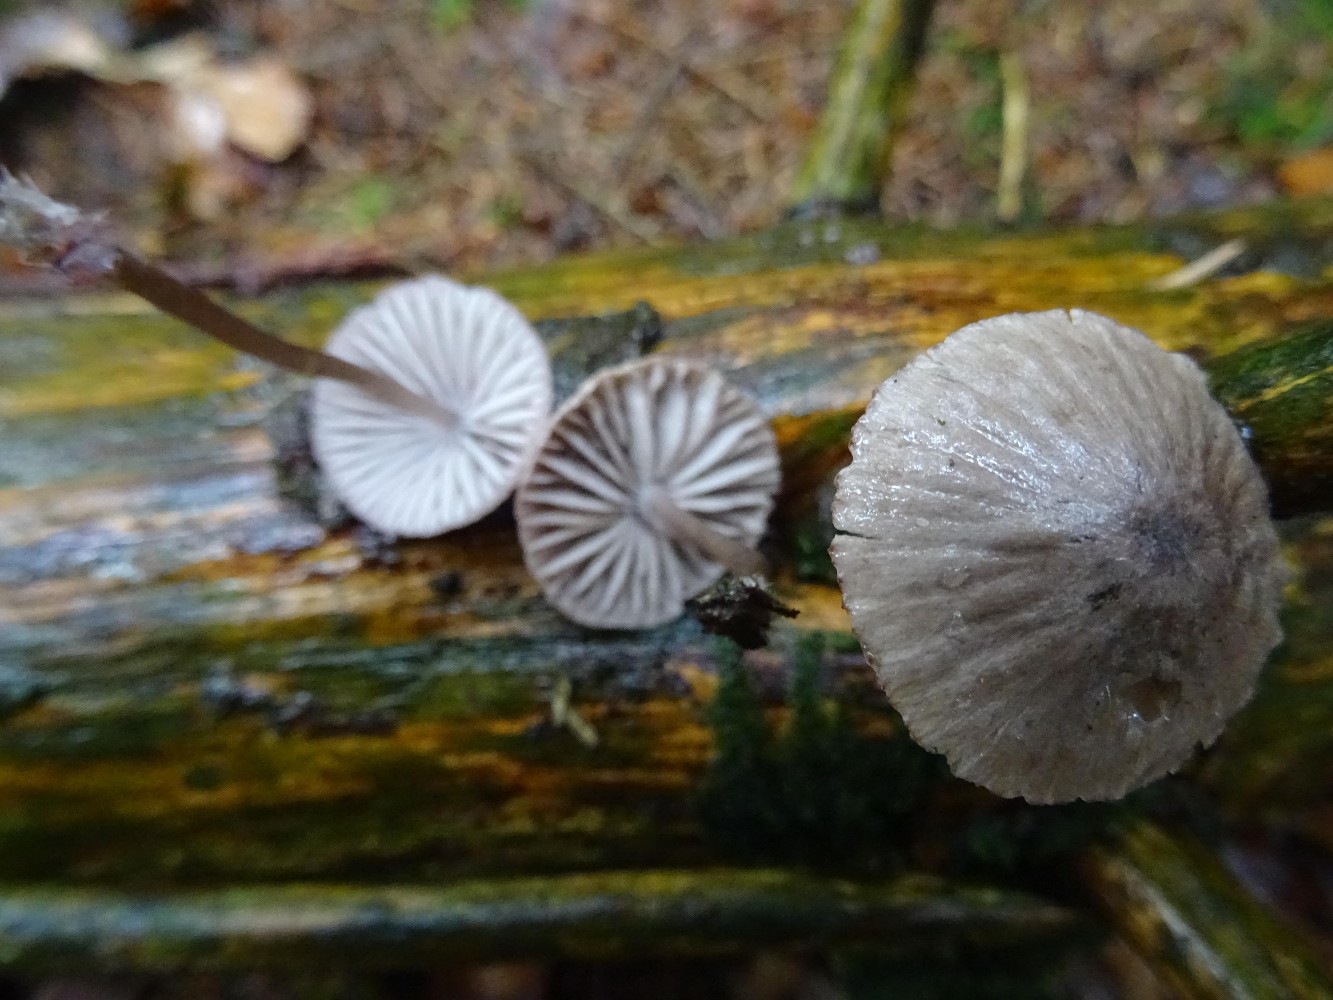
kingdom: Fungi
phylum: Basidiomycota
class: Agaricomycetes
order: Agaricales
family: Mycenaceae
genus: Mycena
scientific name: Mycena rubromarginata
